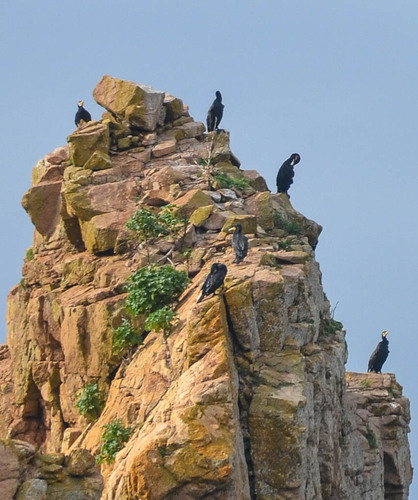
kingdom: Animalia
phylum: Chordata
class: Aves
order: Suliformes
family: Phalacrocoracidae
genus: Phalacrocorax
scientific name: Phalacrocorax carbo
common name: Great cormorant
